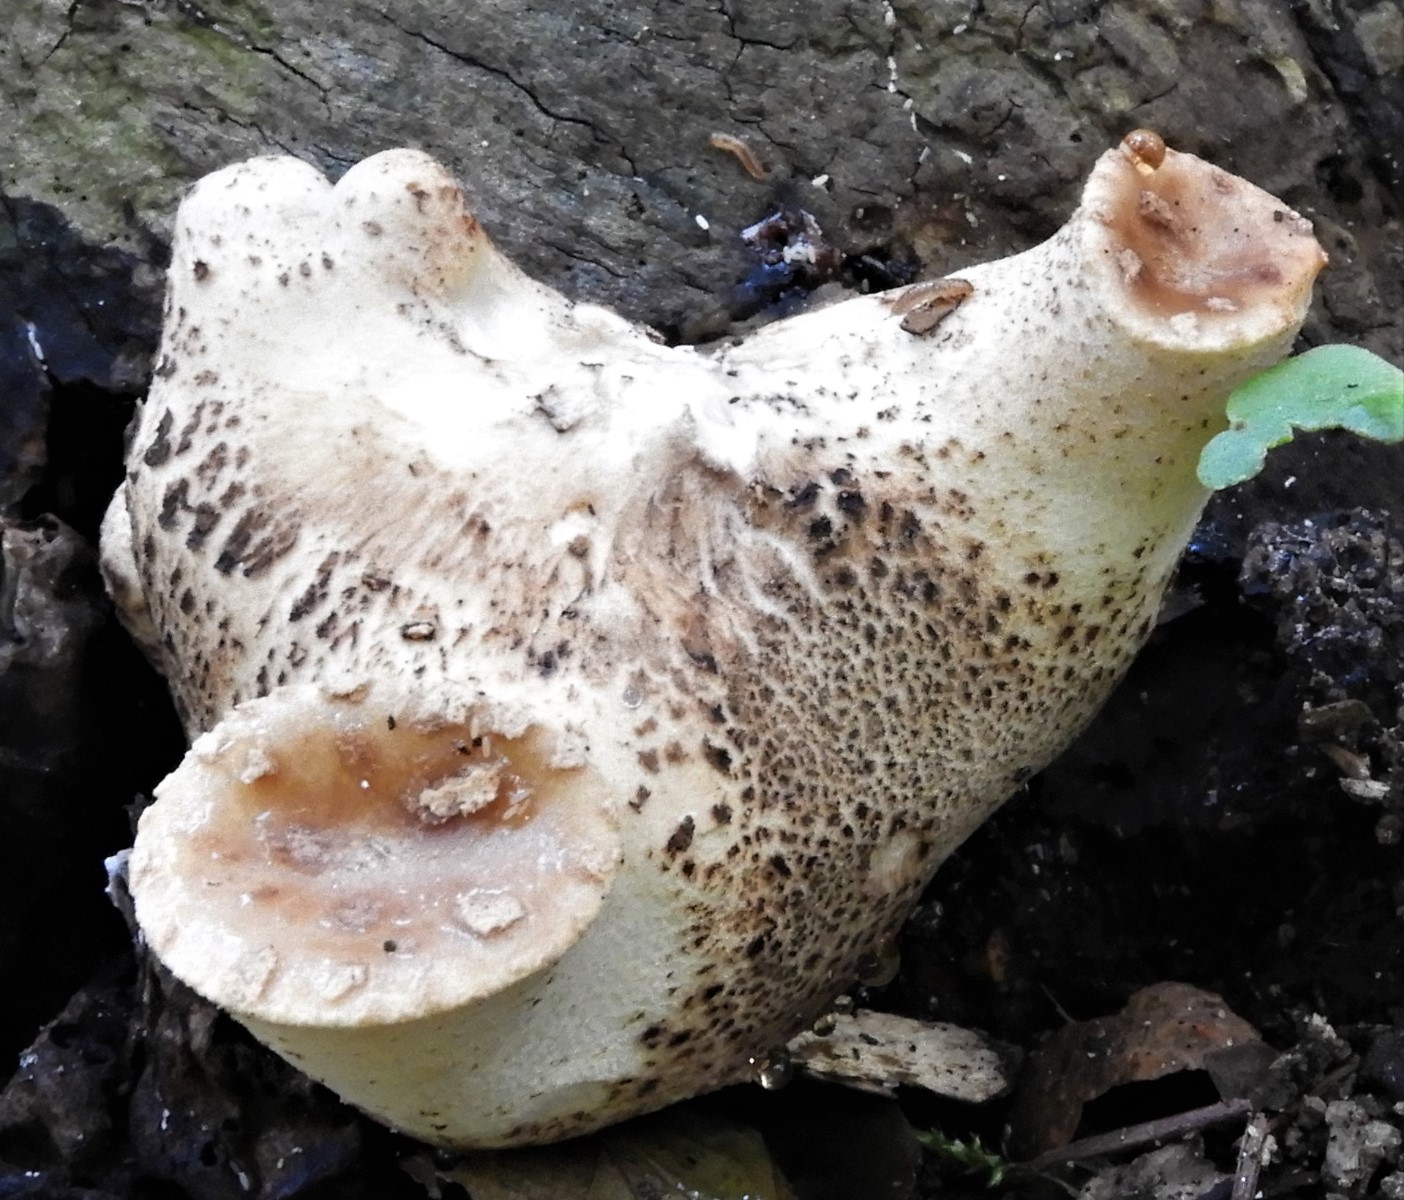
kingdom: Fungi
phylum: Basidiomycota
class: Agaricomycetes
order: Polyporales
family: Polyporaceae
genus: Cerioporus
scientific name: Cerioporus varius
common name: foranderlig stilkporesvamp
